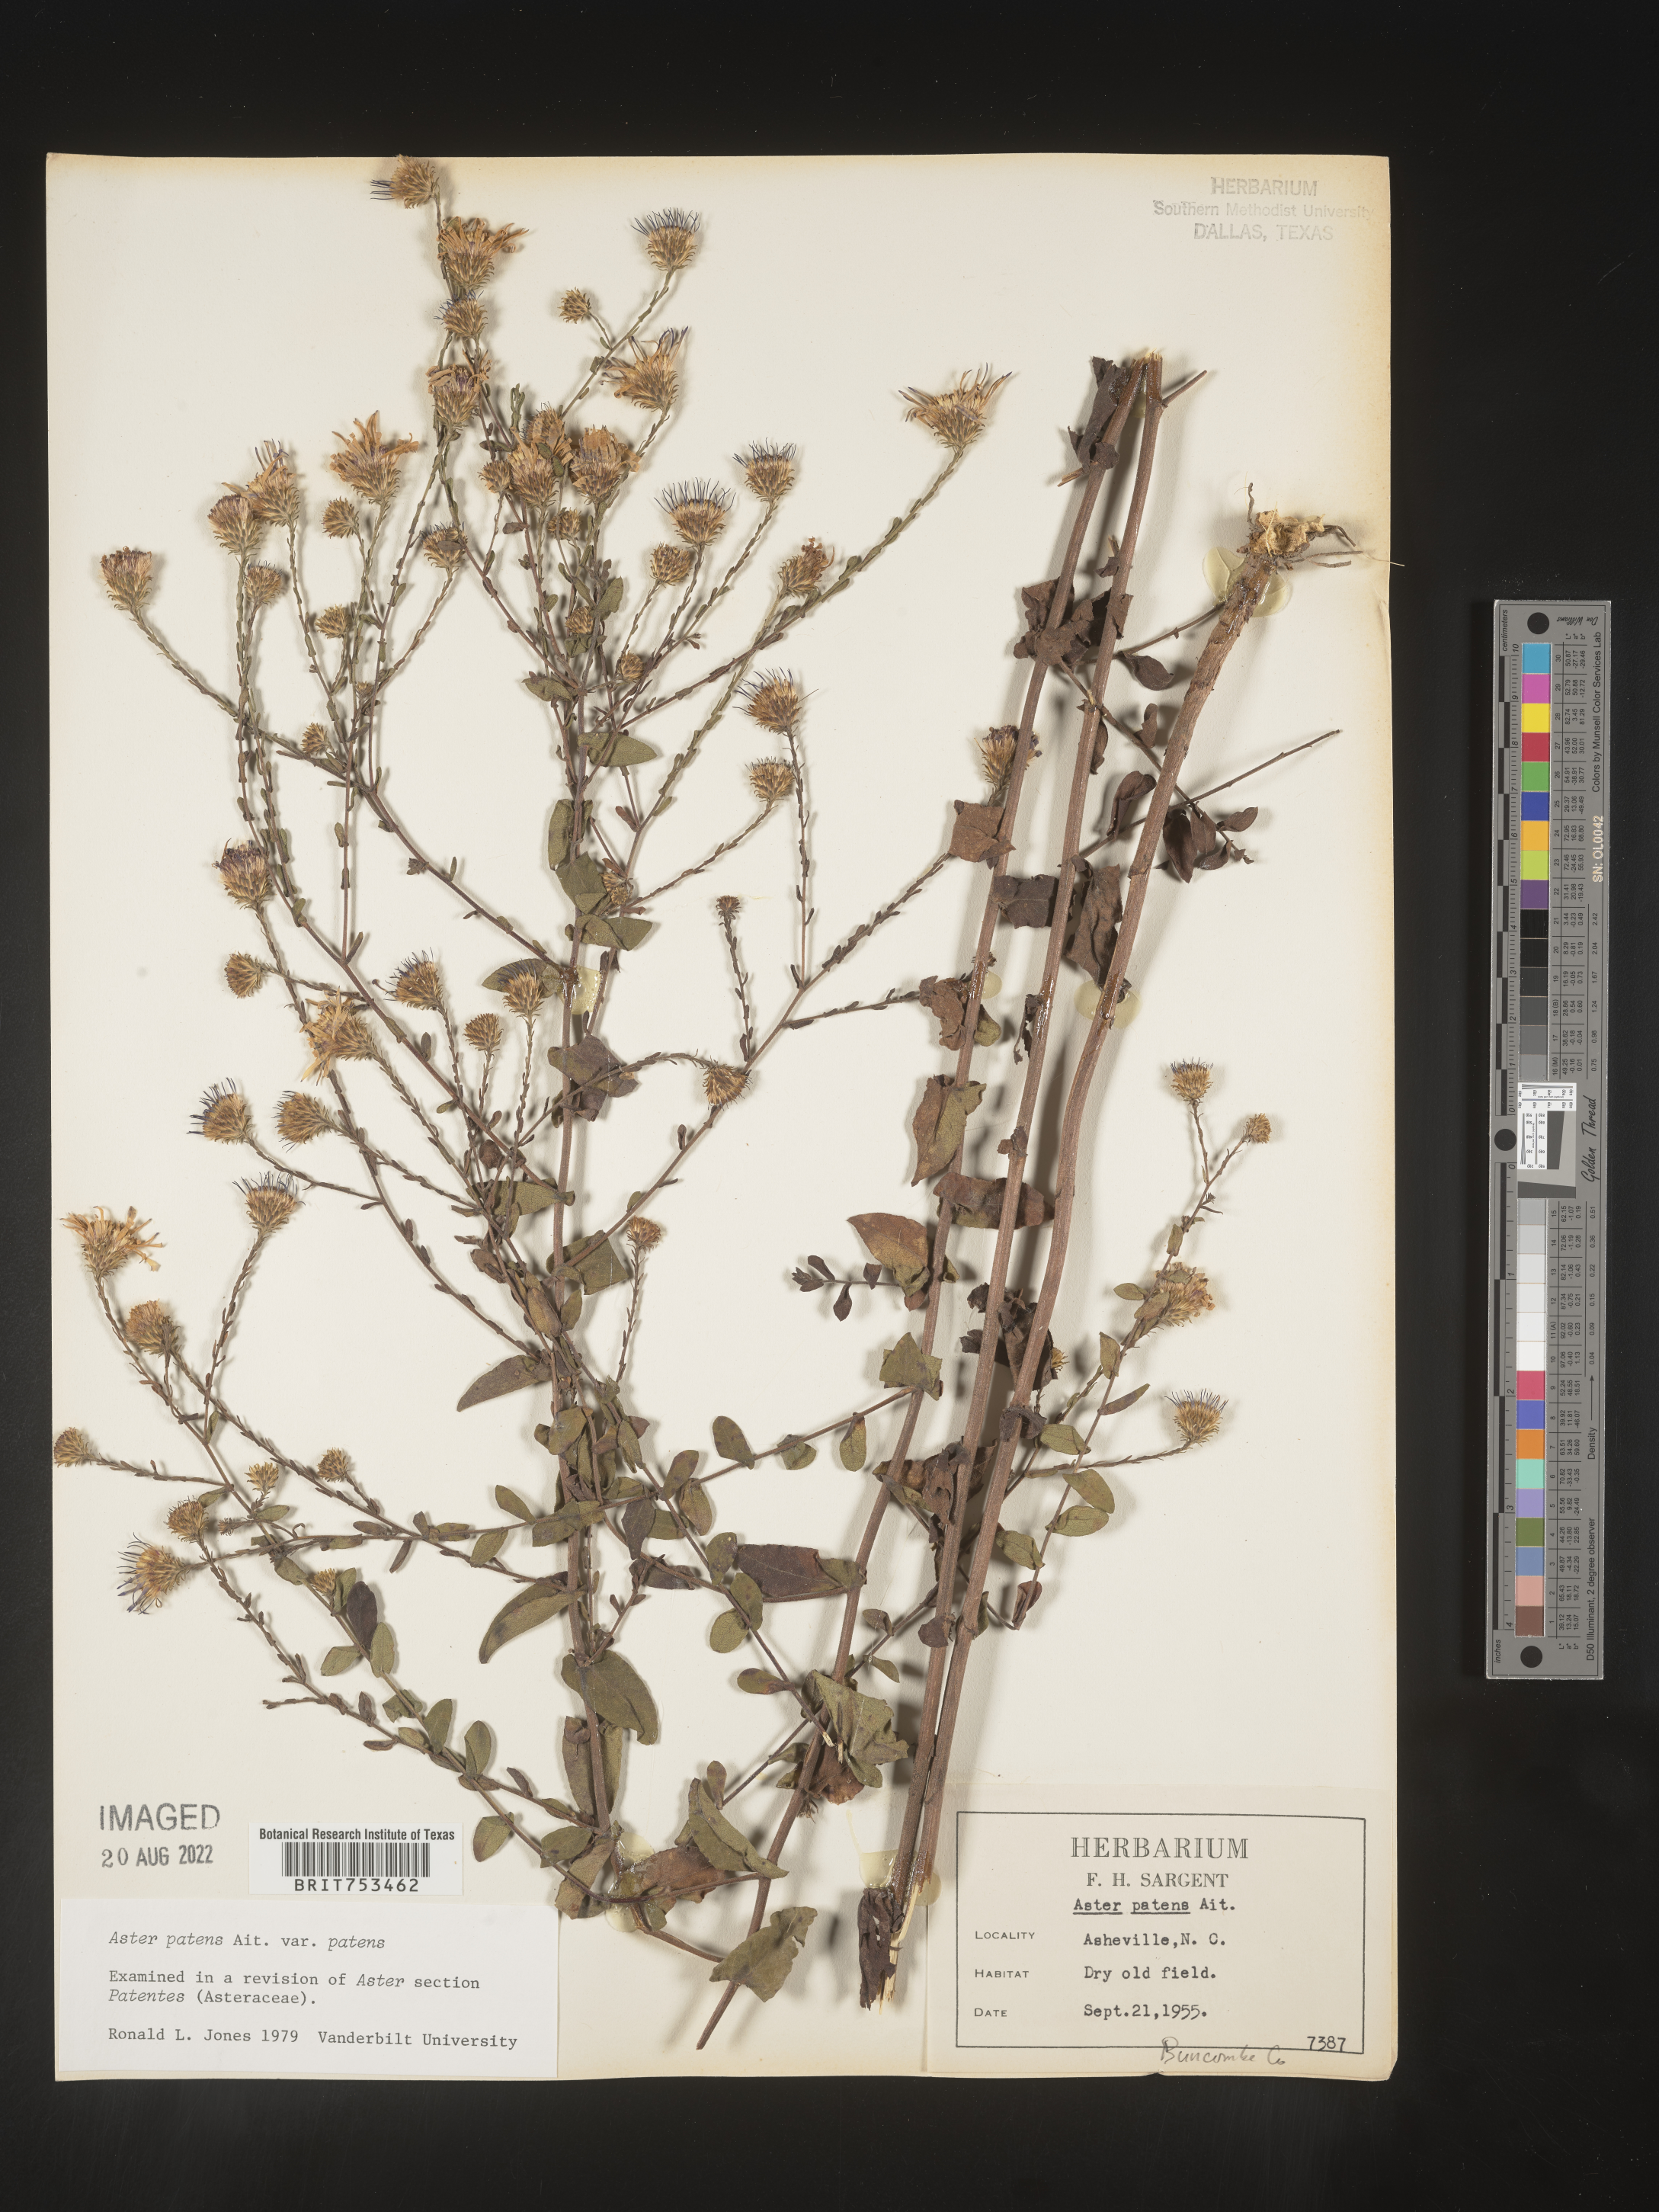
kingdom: Plantae
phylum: Tracheophyta
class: Magnoliopsida
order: Asterales
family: Asteraceae
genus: Symphyotrichum
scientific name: Symphyotrichum patens
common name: Late purple aster
